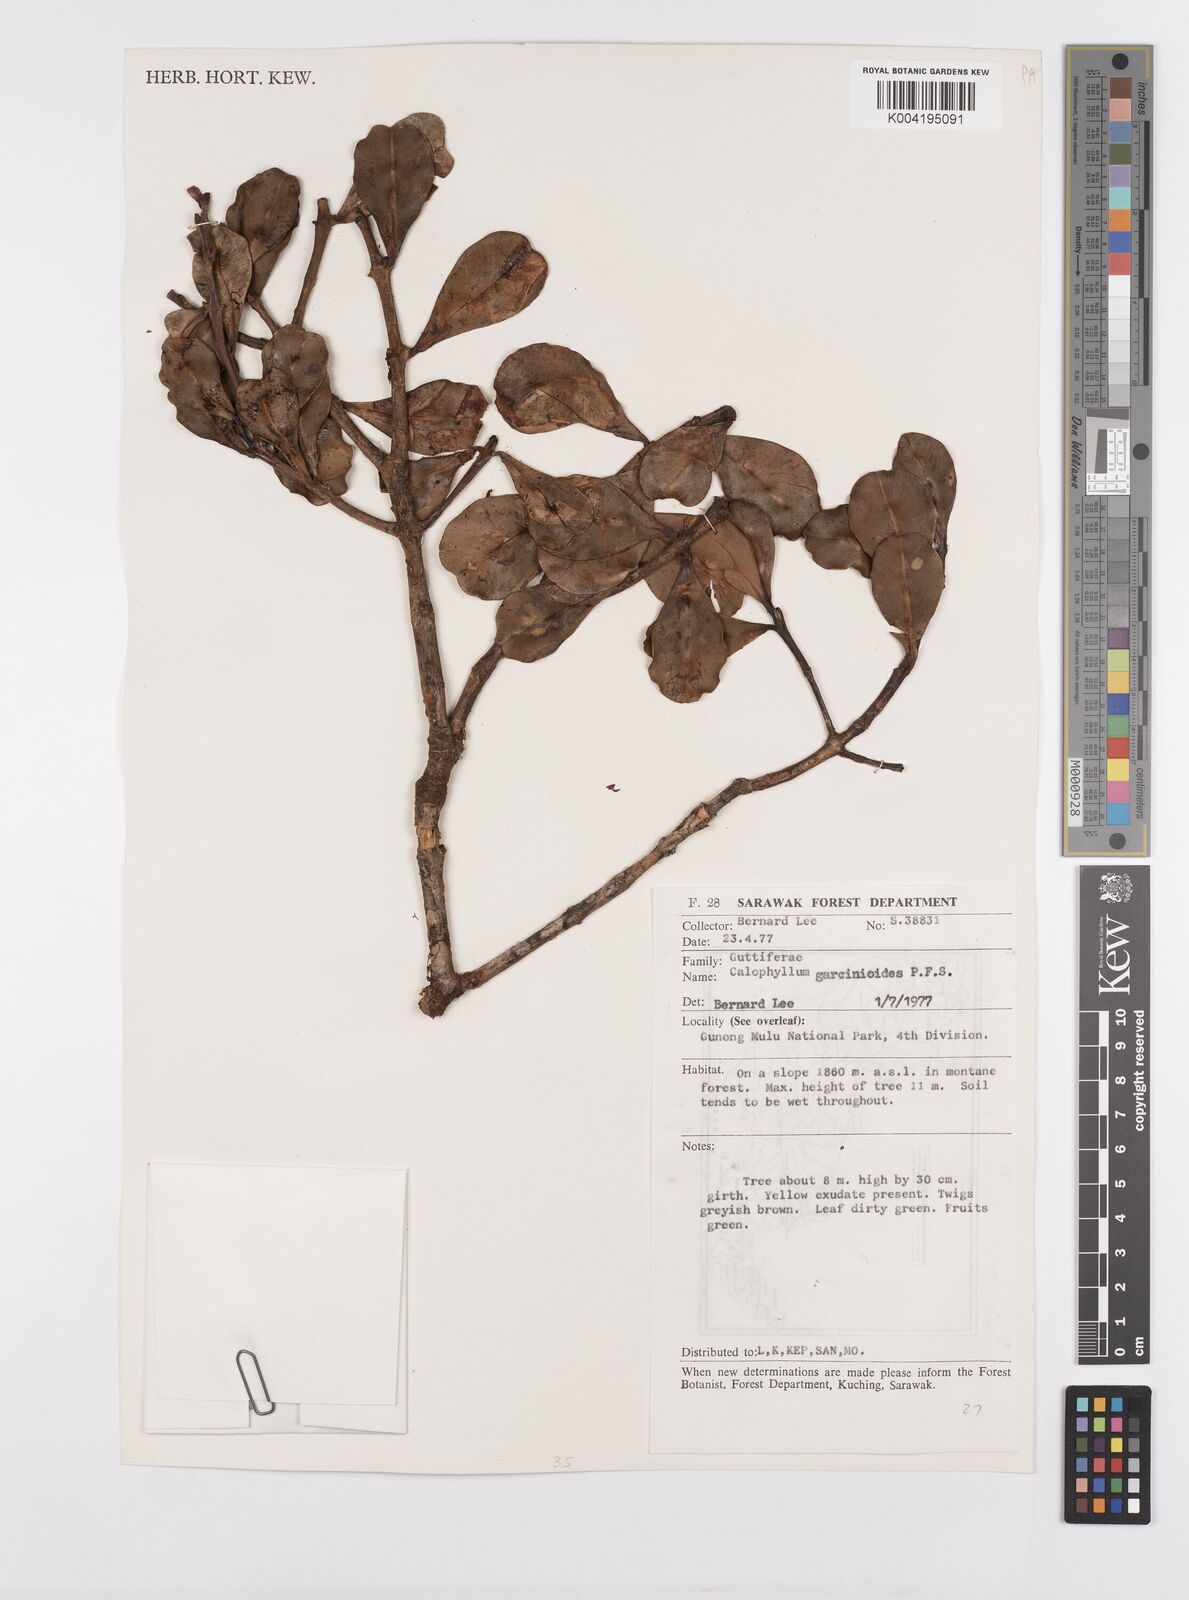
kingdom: Plantae
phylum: Tracheophyta
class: Magnoliopsida
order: Malpighiales
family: Calophyllaceae
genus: Calophyllum
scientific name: Calophyllum garcinioides
